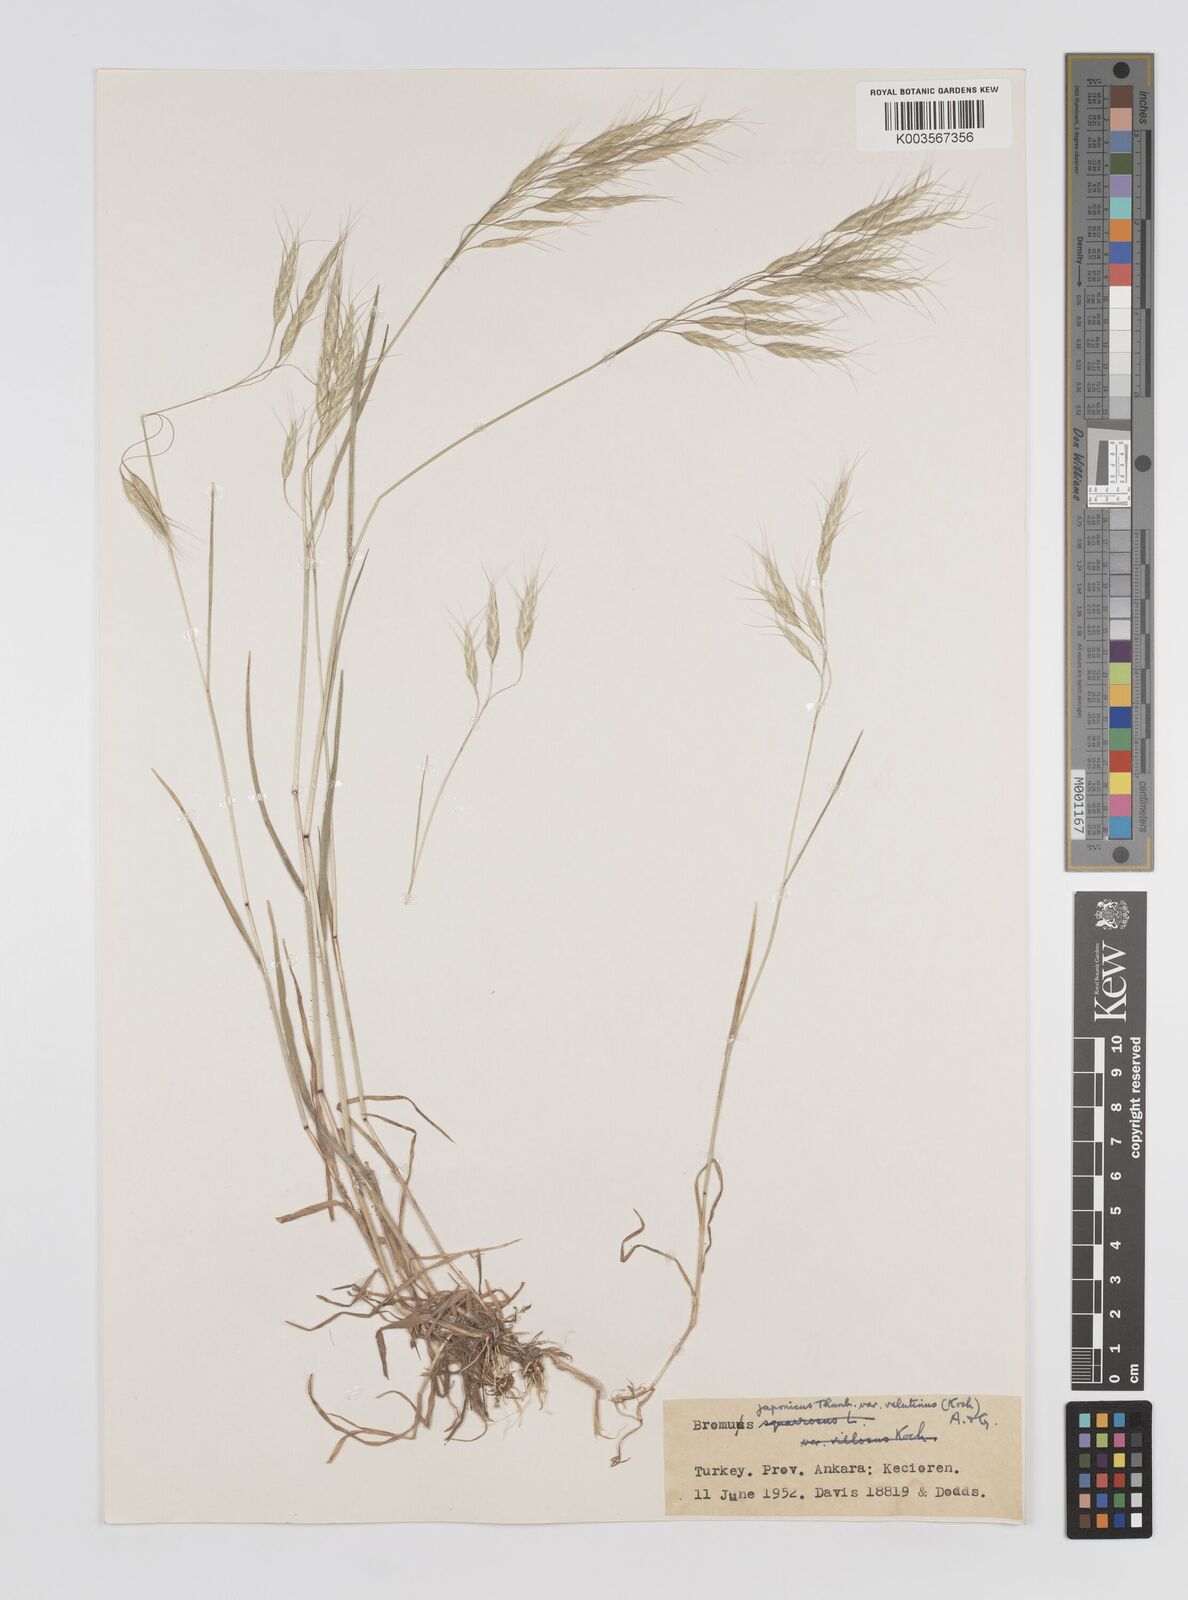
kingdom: Plantae
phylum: Tracheophyta
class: Liliopsida
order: Poales
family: Poaceae
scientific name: Poaceae
